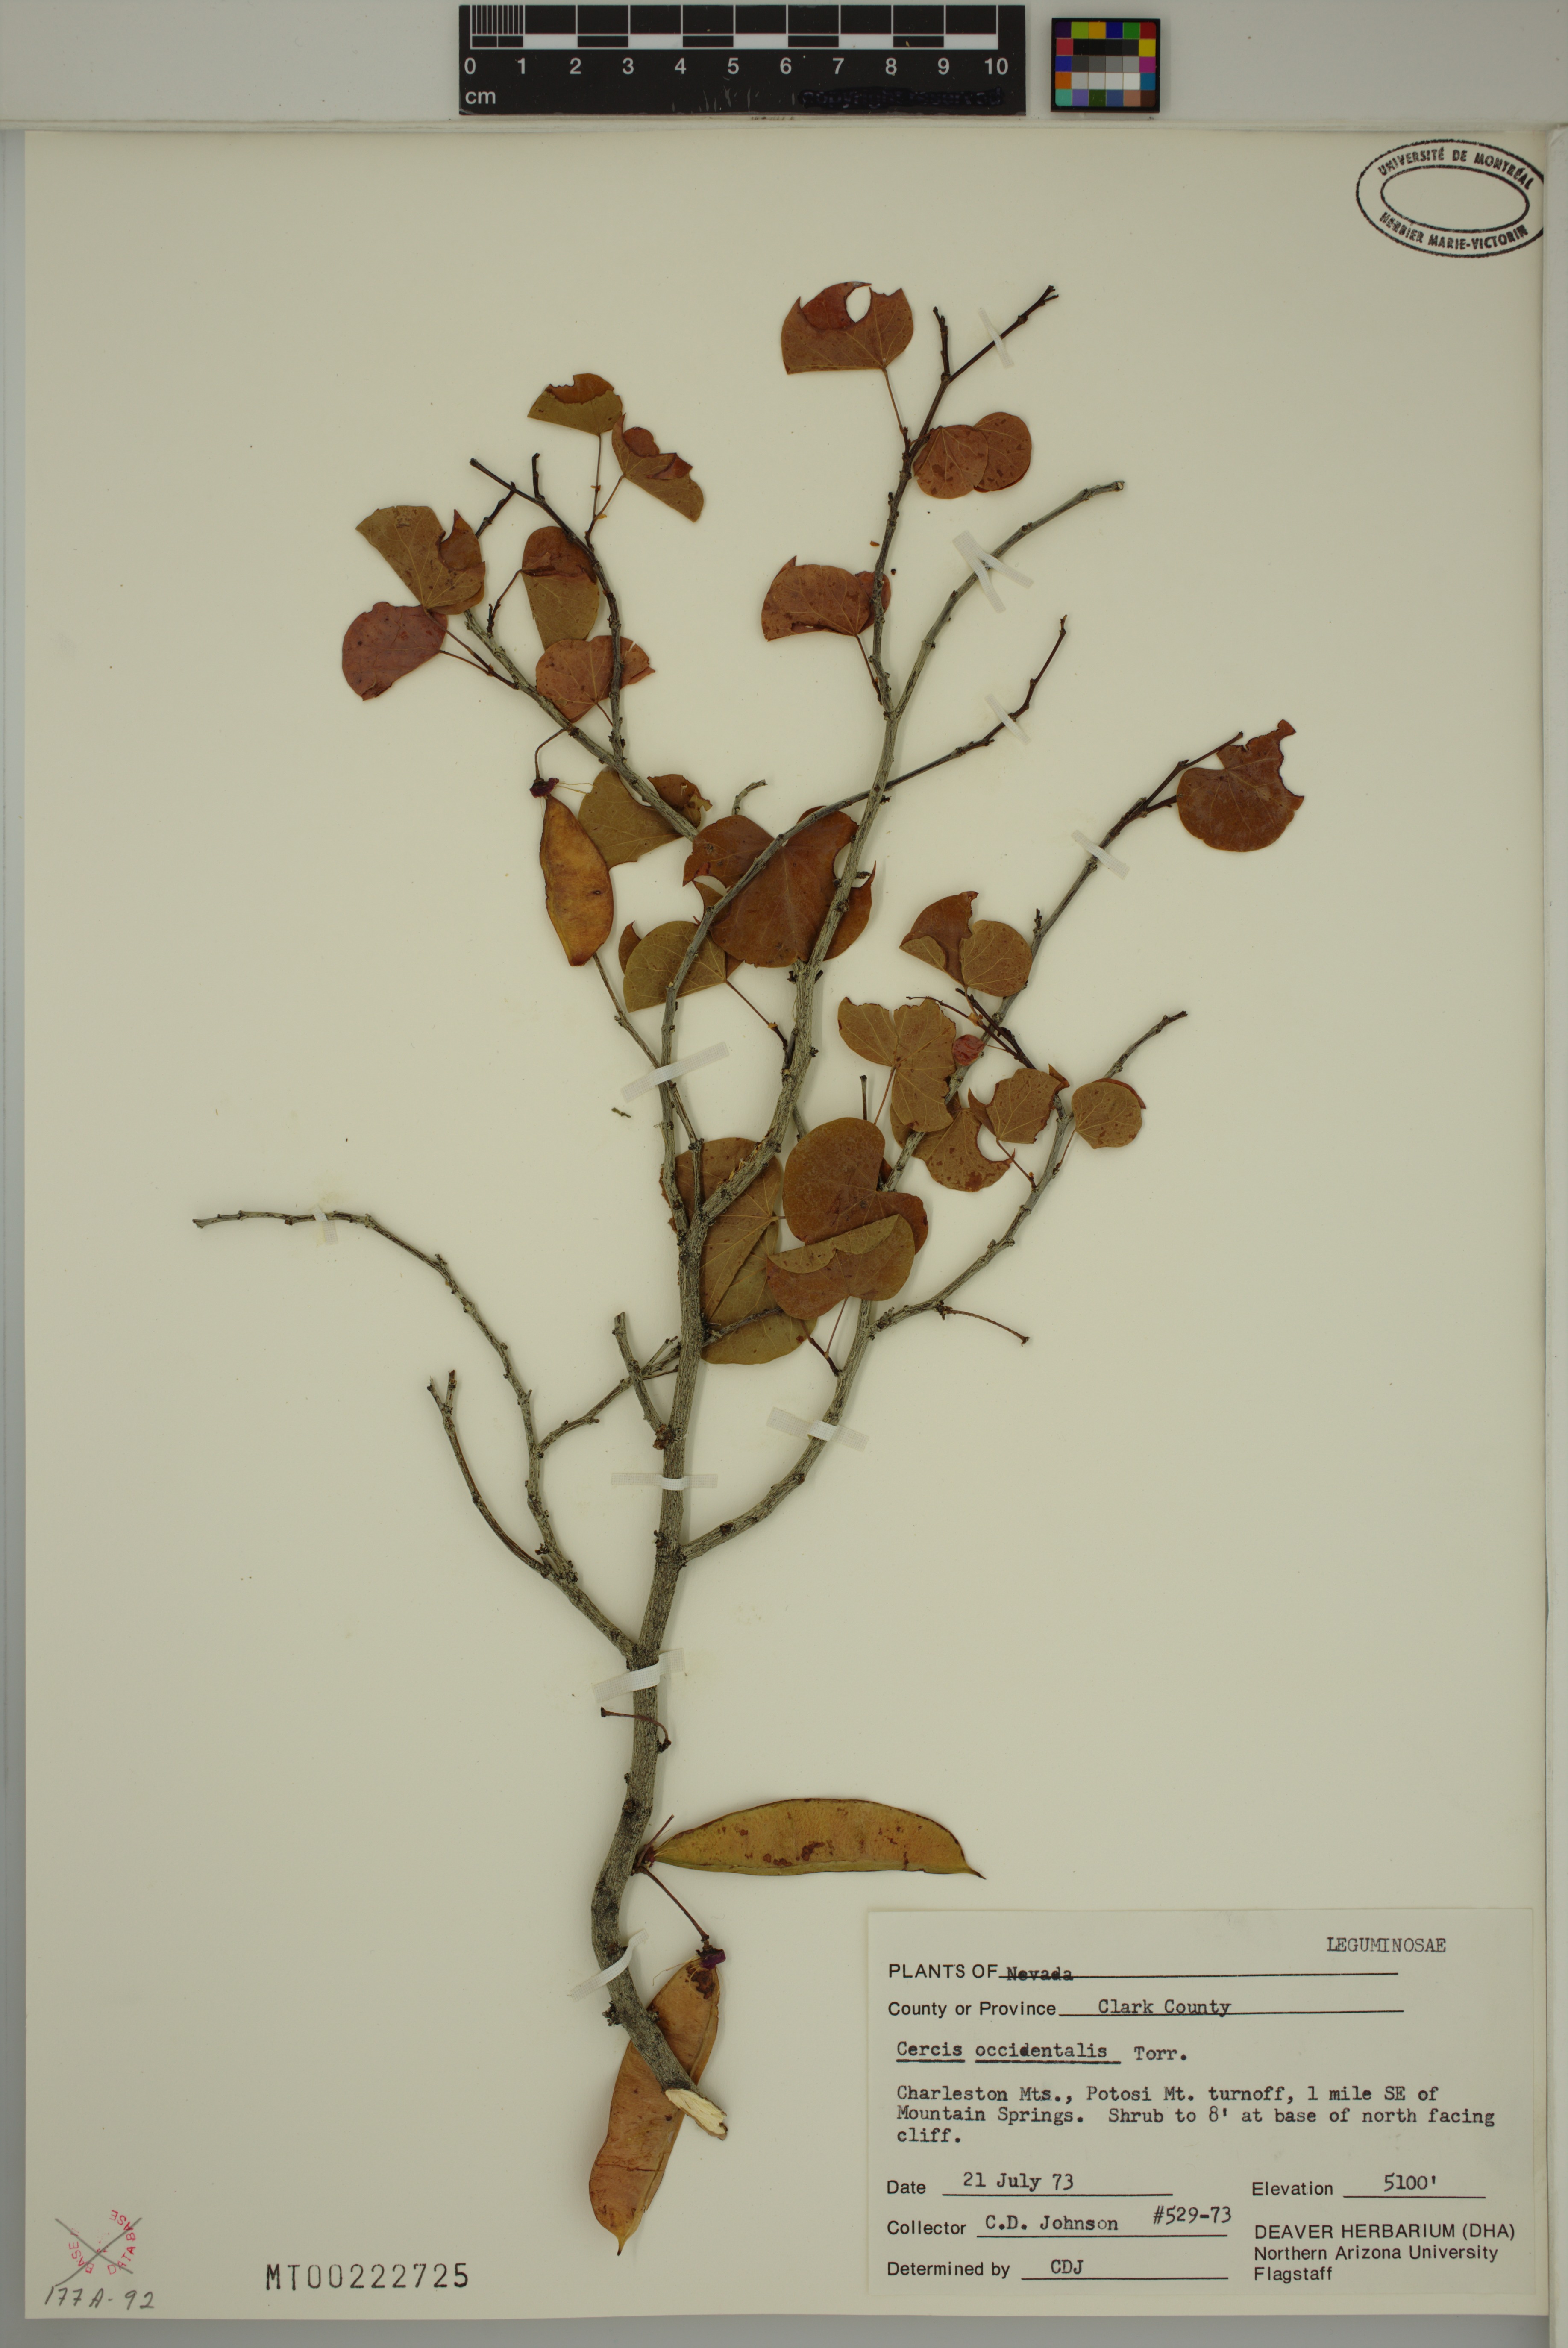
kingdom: Plantae
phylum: Tracheophyta
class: Magnoliopsida
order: Fabales
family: Fabaceae
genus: Cercis
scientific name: Cercis occidentalis
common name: California redbud
